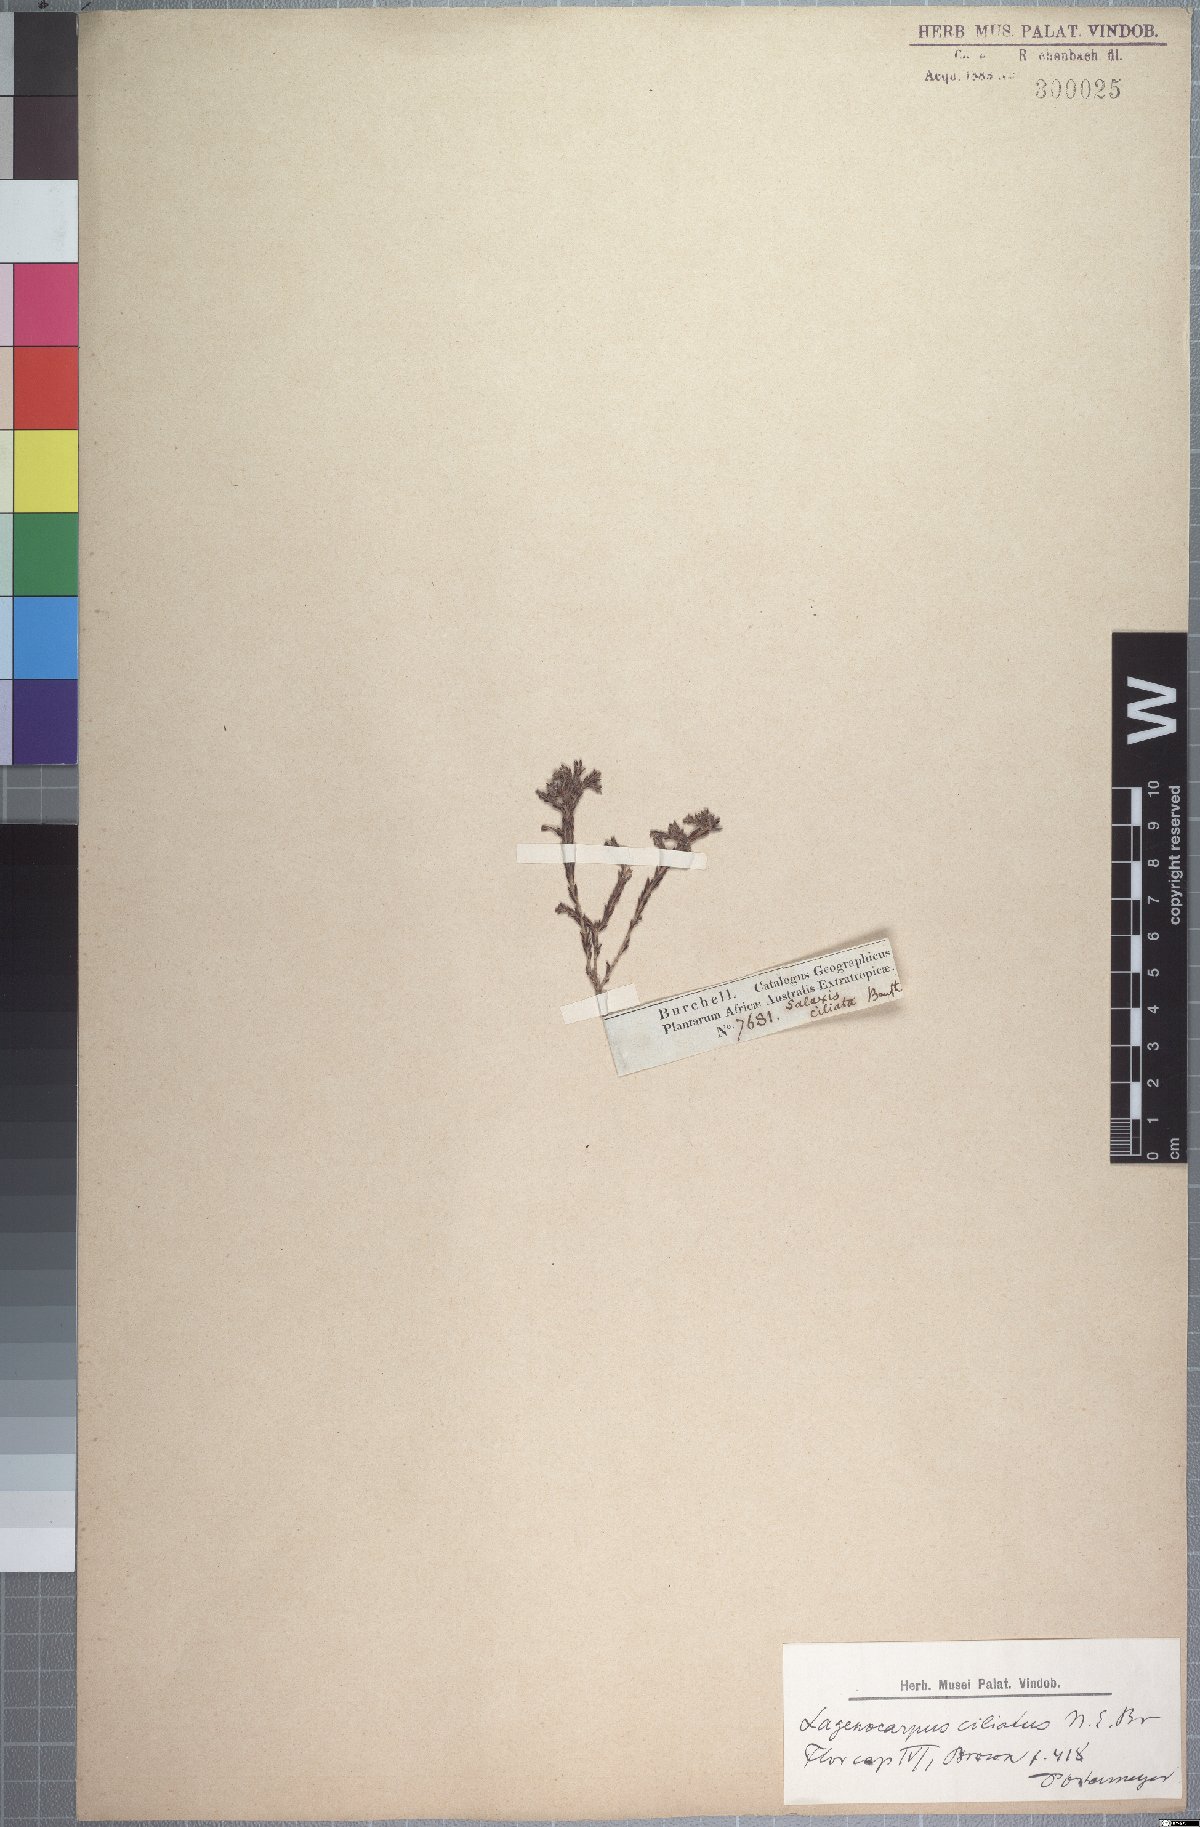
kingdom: Plantae
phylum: Tracheophyta
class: Magnoliopsida
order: Ericales
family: Ericaceae
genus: Erica
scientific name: Erica serrata
